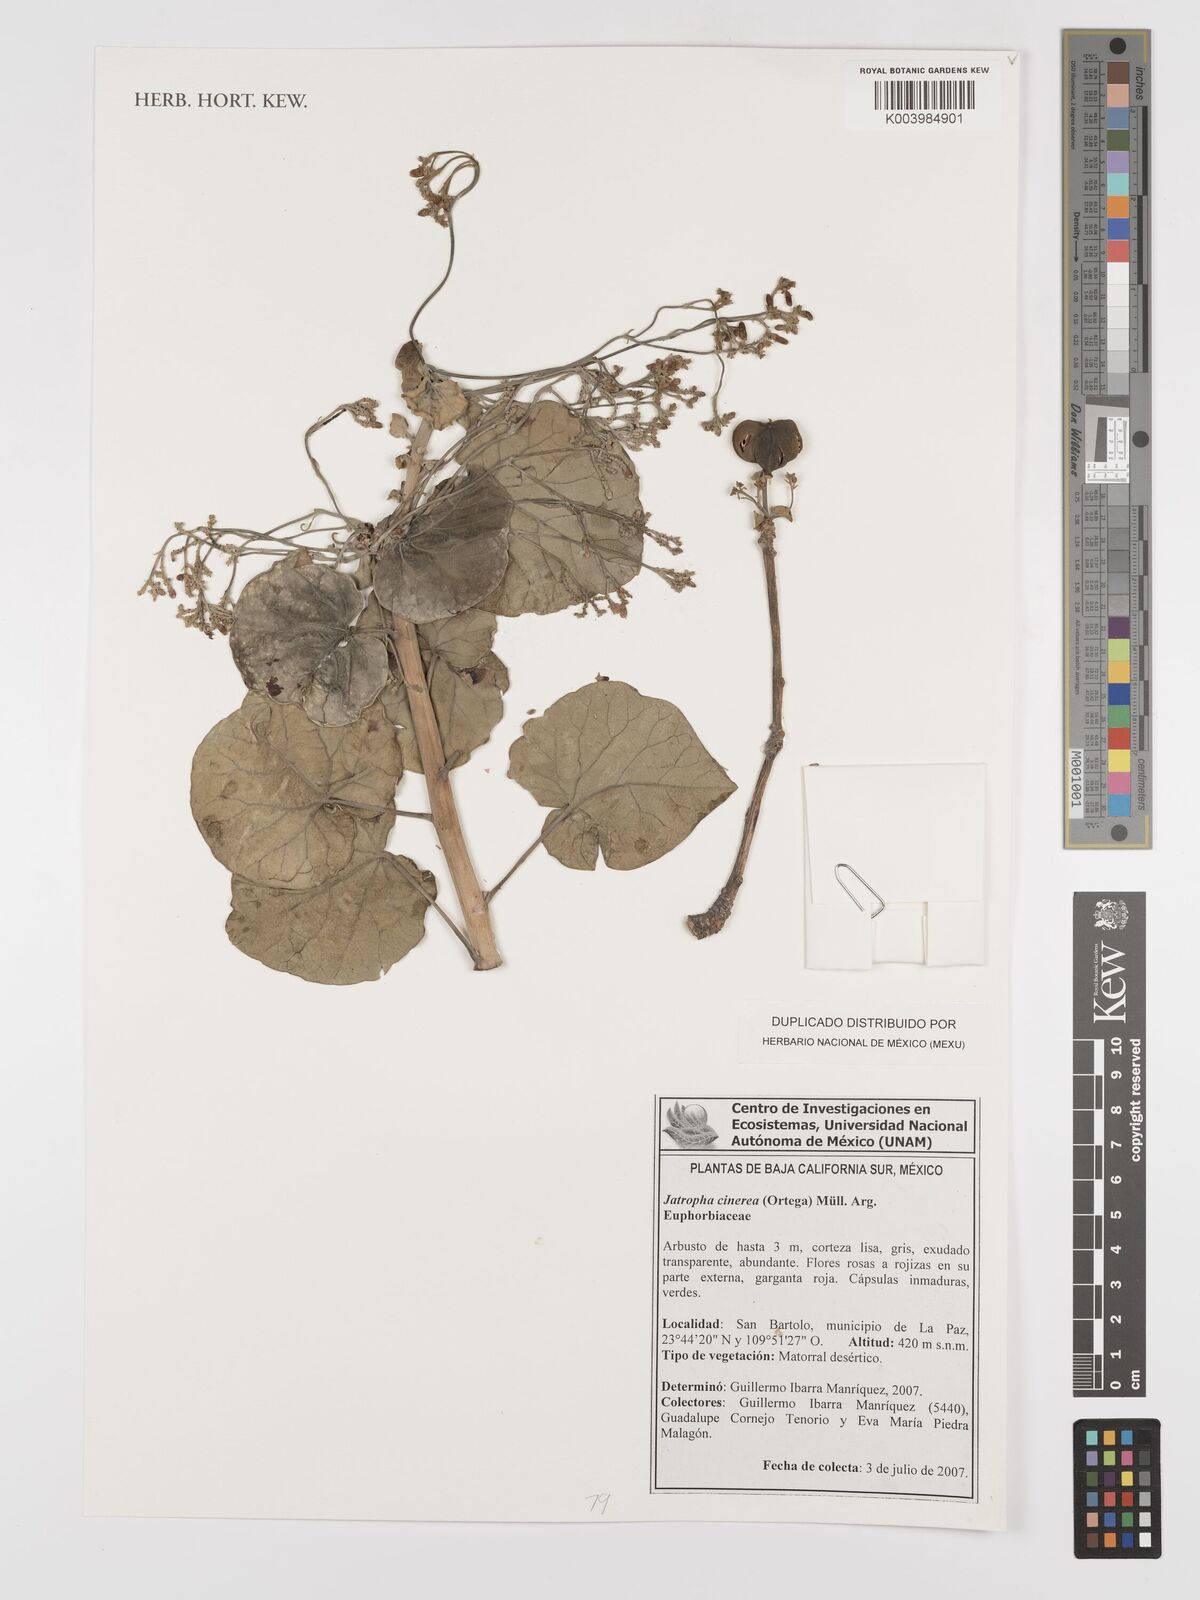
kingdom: Plantae
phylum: Tracheophyta
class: Magnoliopsida
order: Malpighiales
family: Euphorbiaceae
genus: Jatropha
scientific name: Jatropha cinerea
